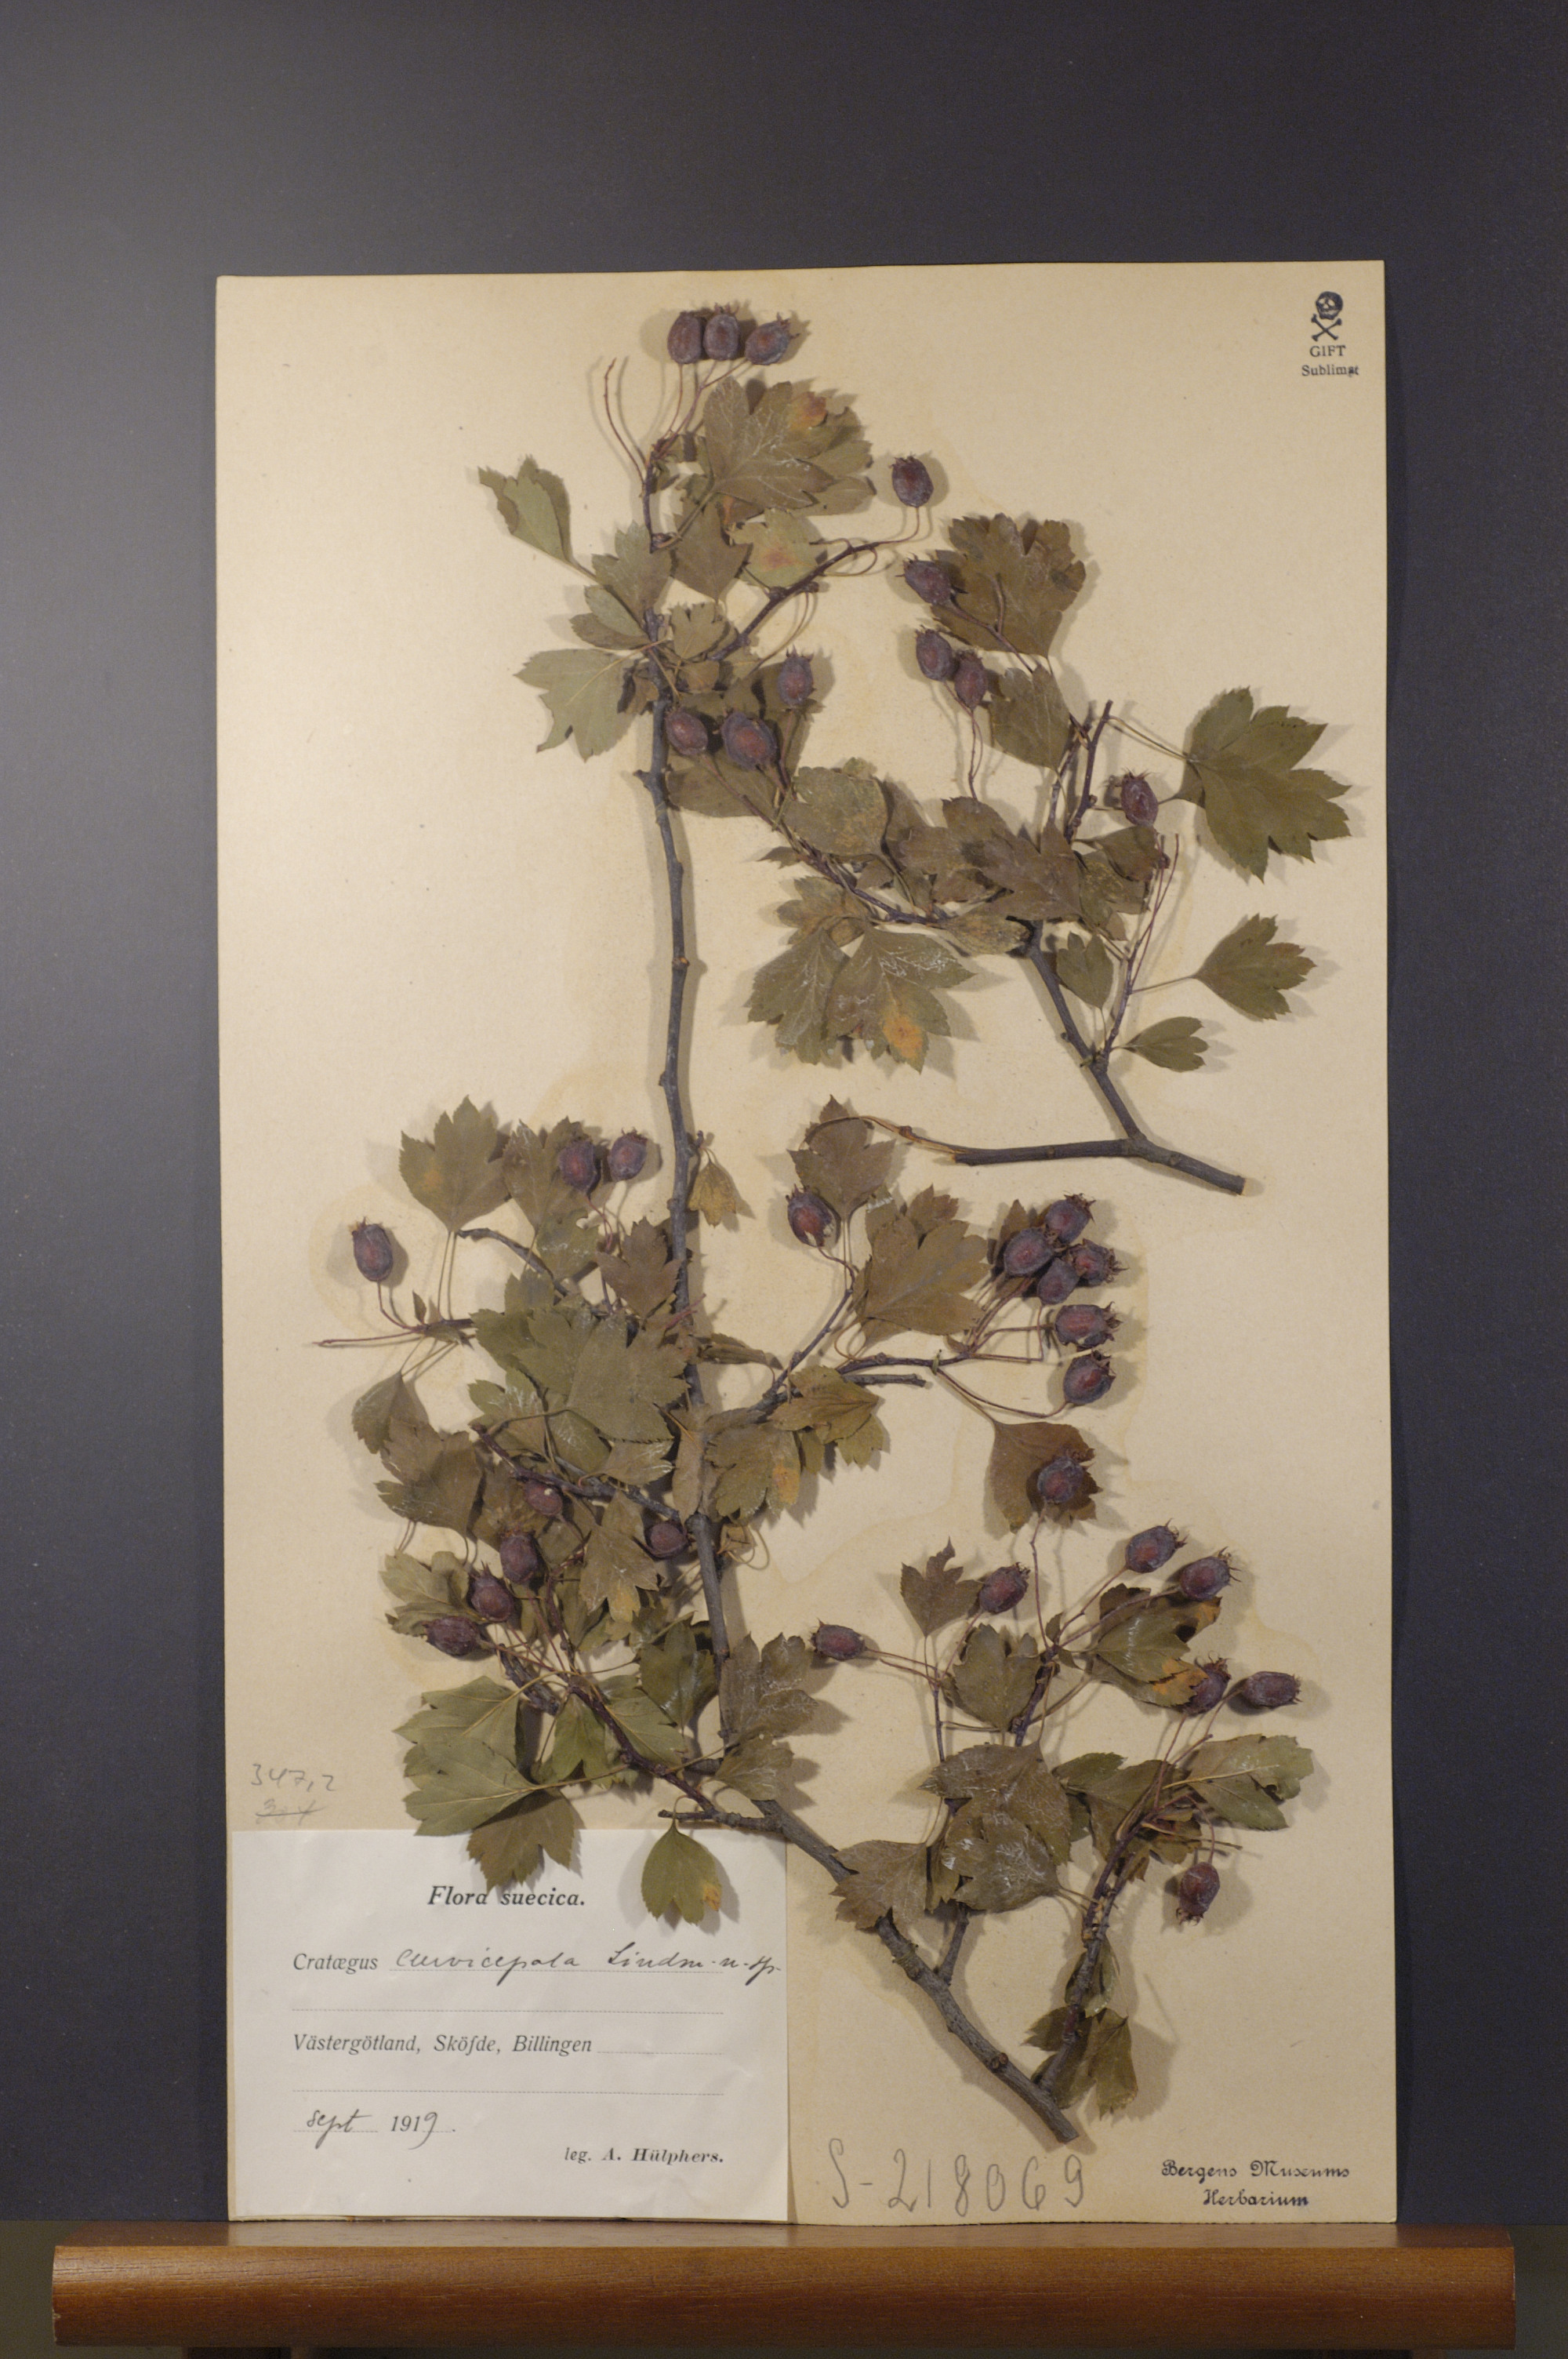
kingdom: Plantae
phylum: Tracheophyta
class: Magnoliopsida
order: Rosales
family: Rosaceae
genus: Crataegus
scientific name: Crataegus rhipidophylla
